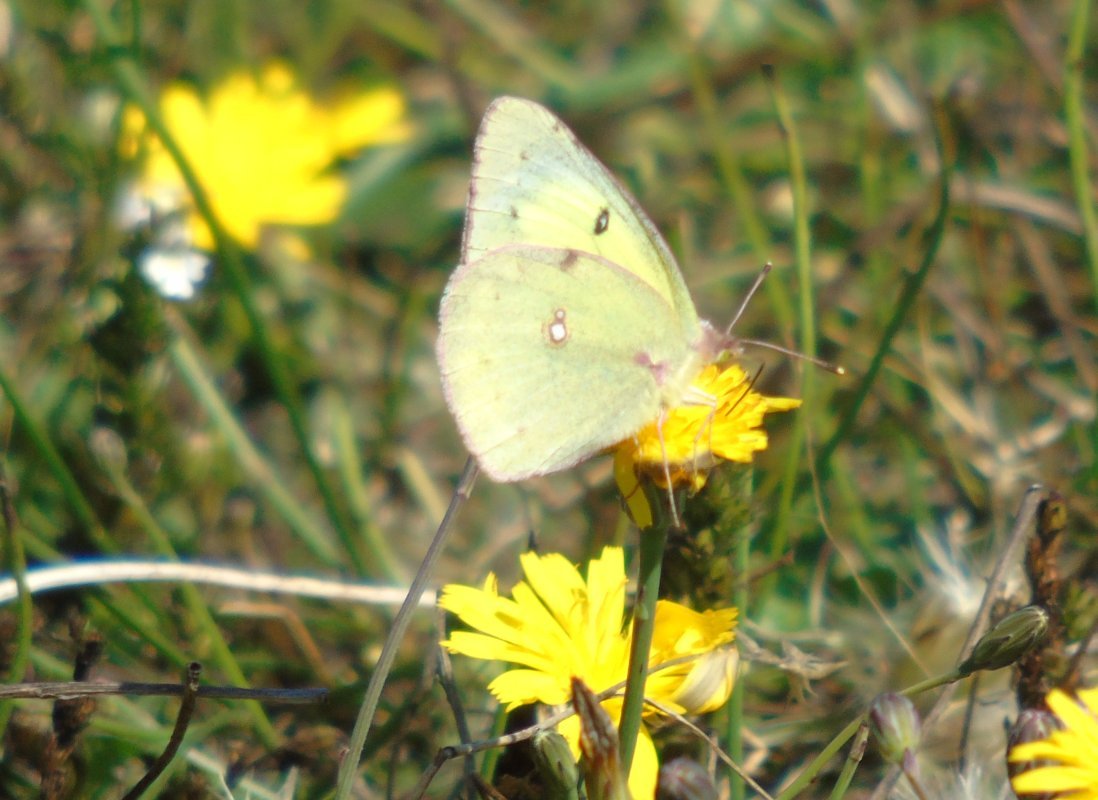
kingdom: Animalia
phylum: Arthropoda
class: Insecta
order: Lepidoptera
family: Pieridae
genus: Colias
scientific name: Colias philodice
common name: Clouded Sulphur
